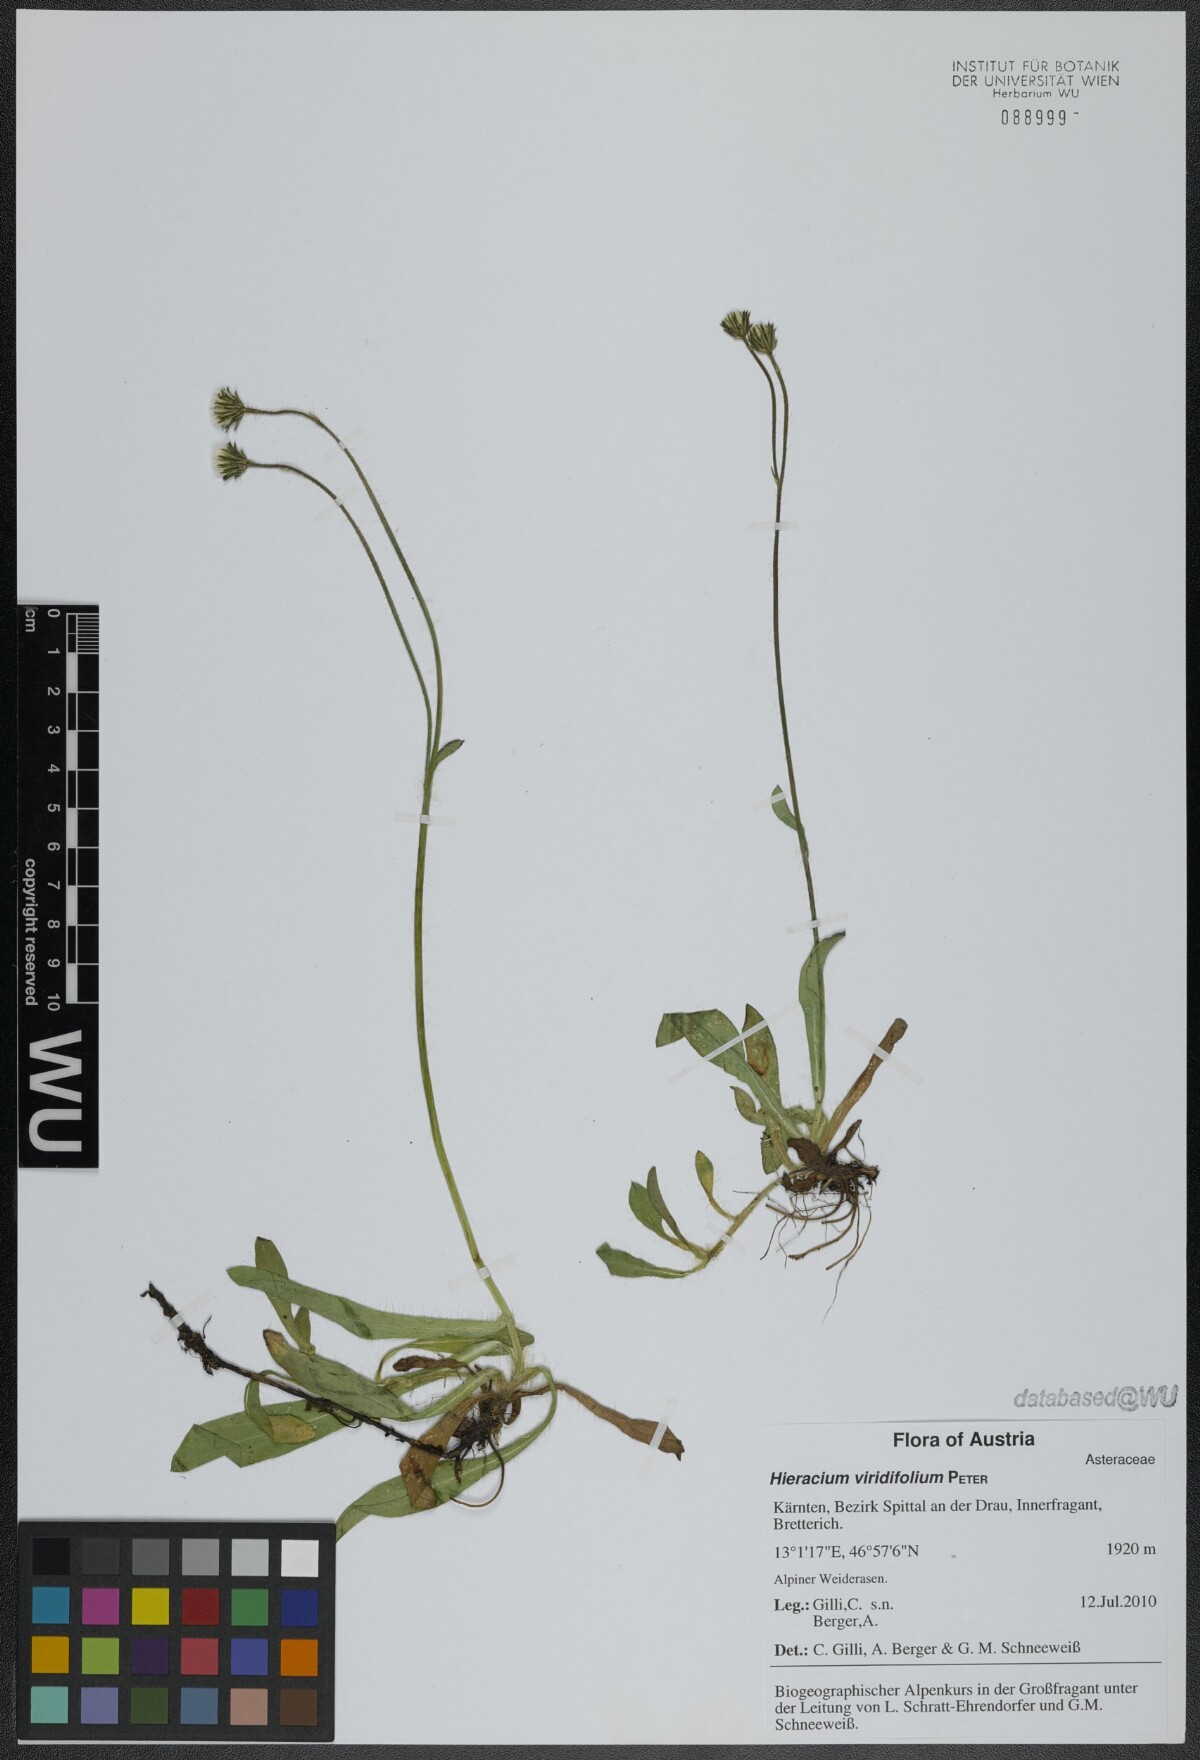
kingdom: Plantae
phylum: Tracheophyta
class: Magnoliopsida
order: Asterales
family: Asteraceae
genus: Pilosella
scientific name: Pilosella viridifolia
